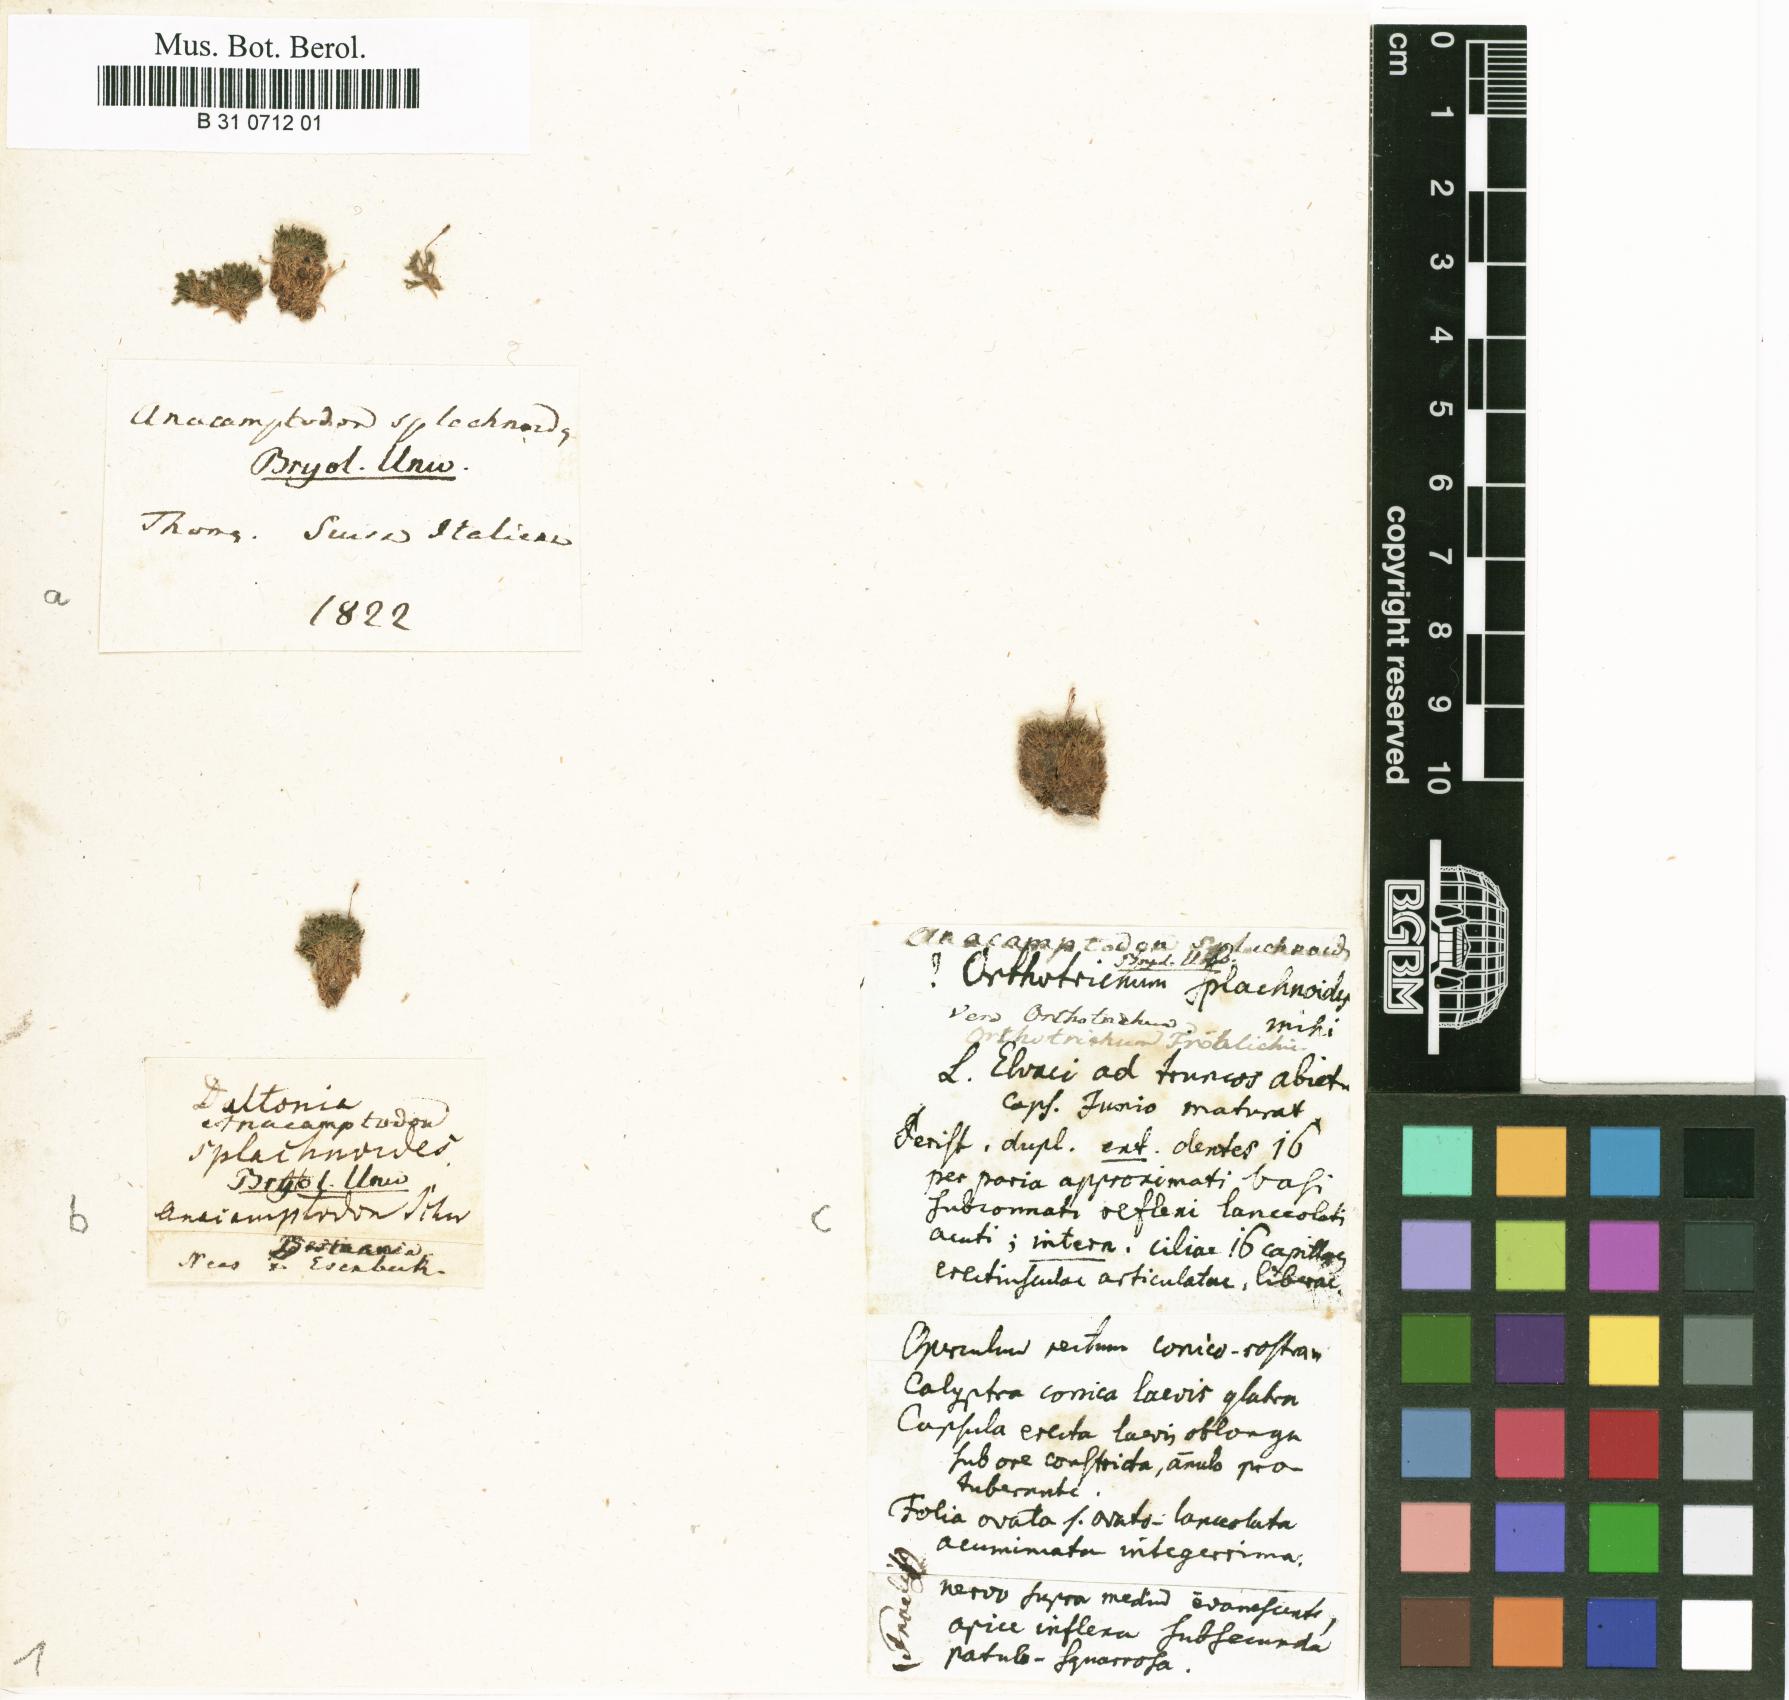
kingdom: Plantae
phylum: Bryophyta
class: Bryopsida
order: Hypnales
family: Amblystegiaceae
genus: Anacamptodon
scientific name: Anacamptodon splachnoides
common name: Knot-hole moss
